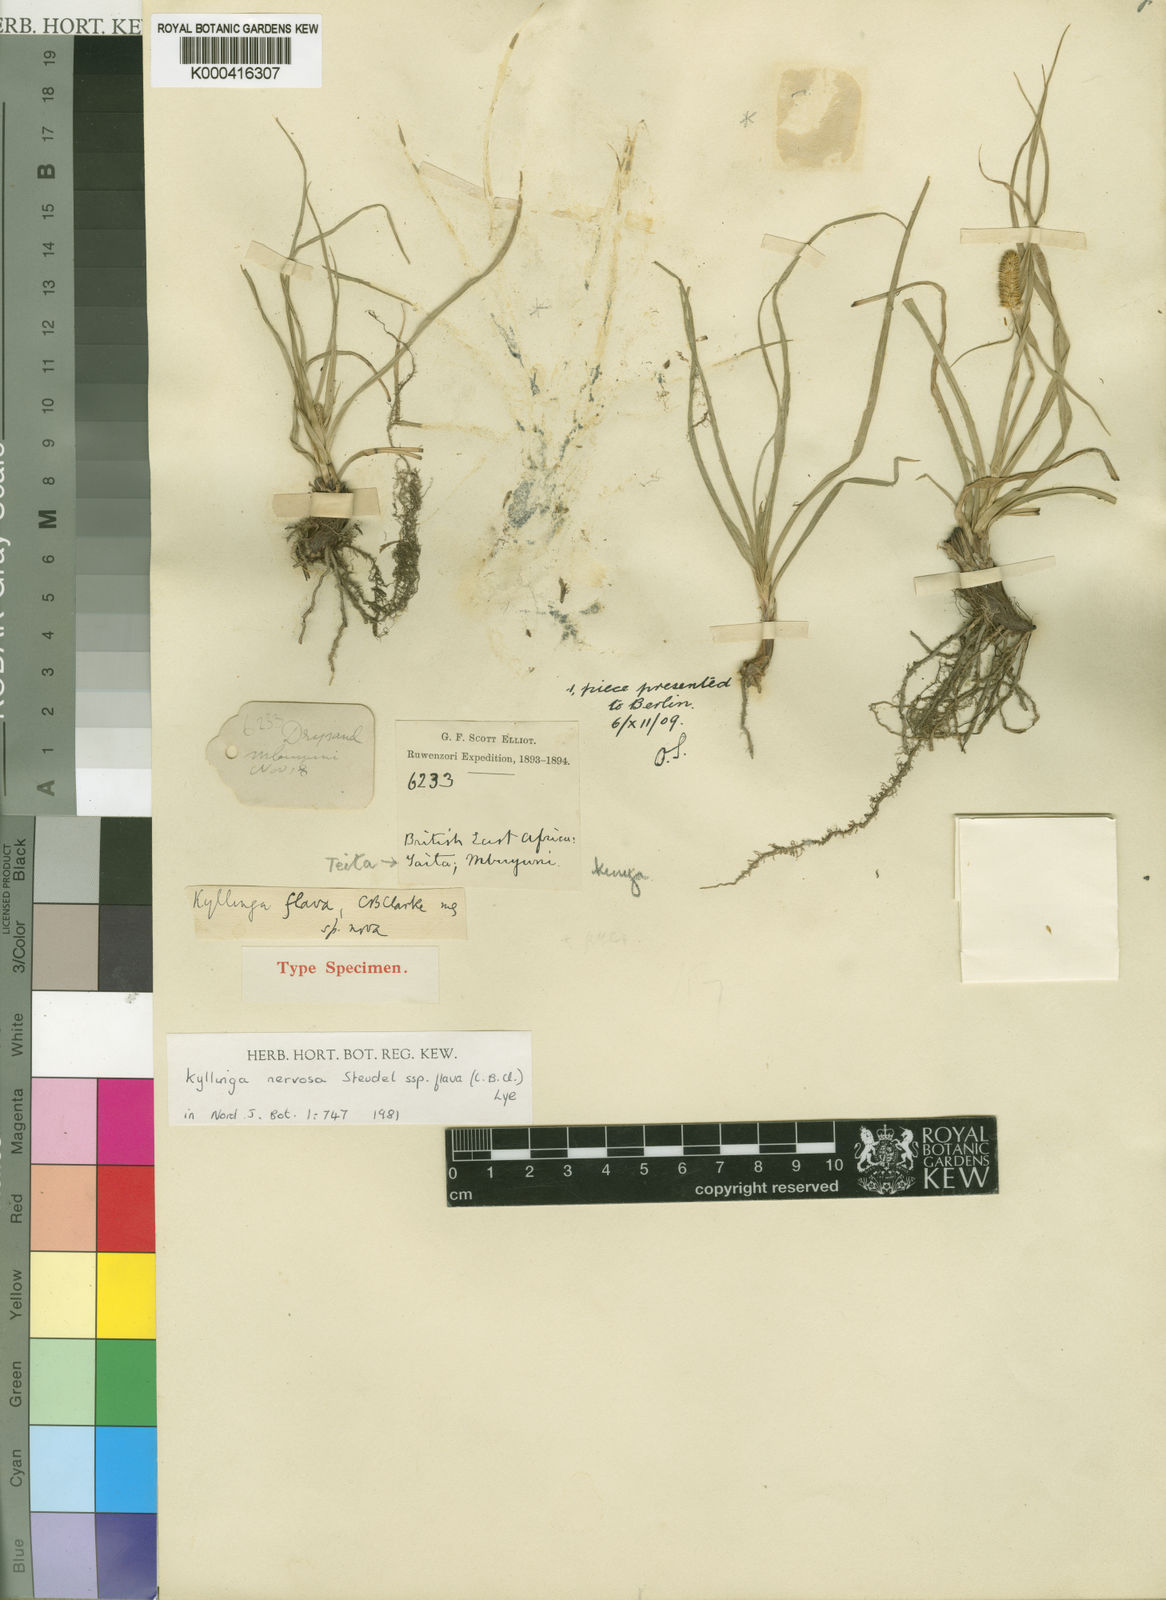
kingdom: Plantae
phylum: Tracheophyta
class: Liliopsida
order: Poales
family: Cyperaceae
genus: Cyperus
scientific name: Cyperus nyikanus
